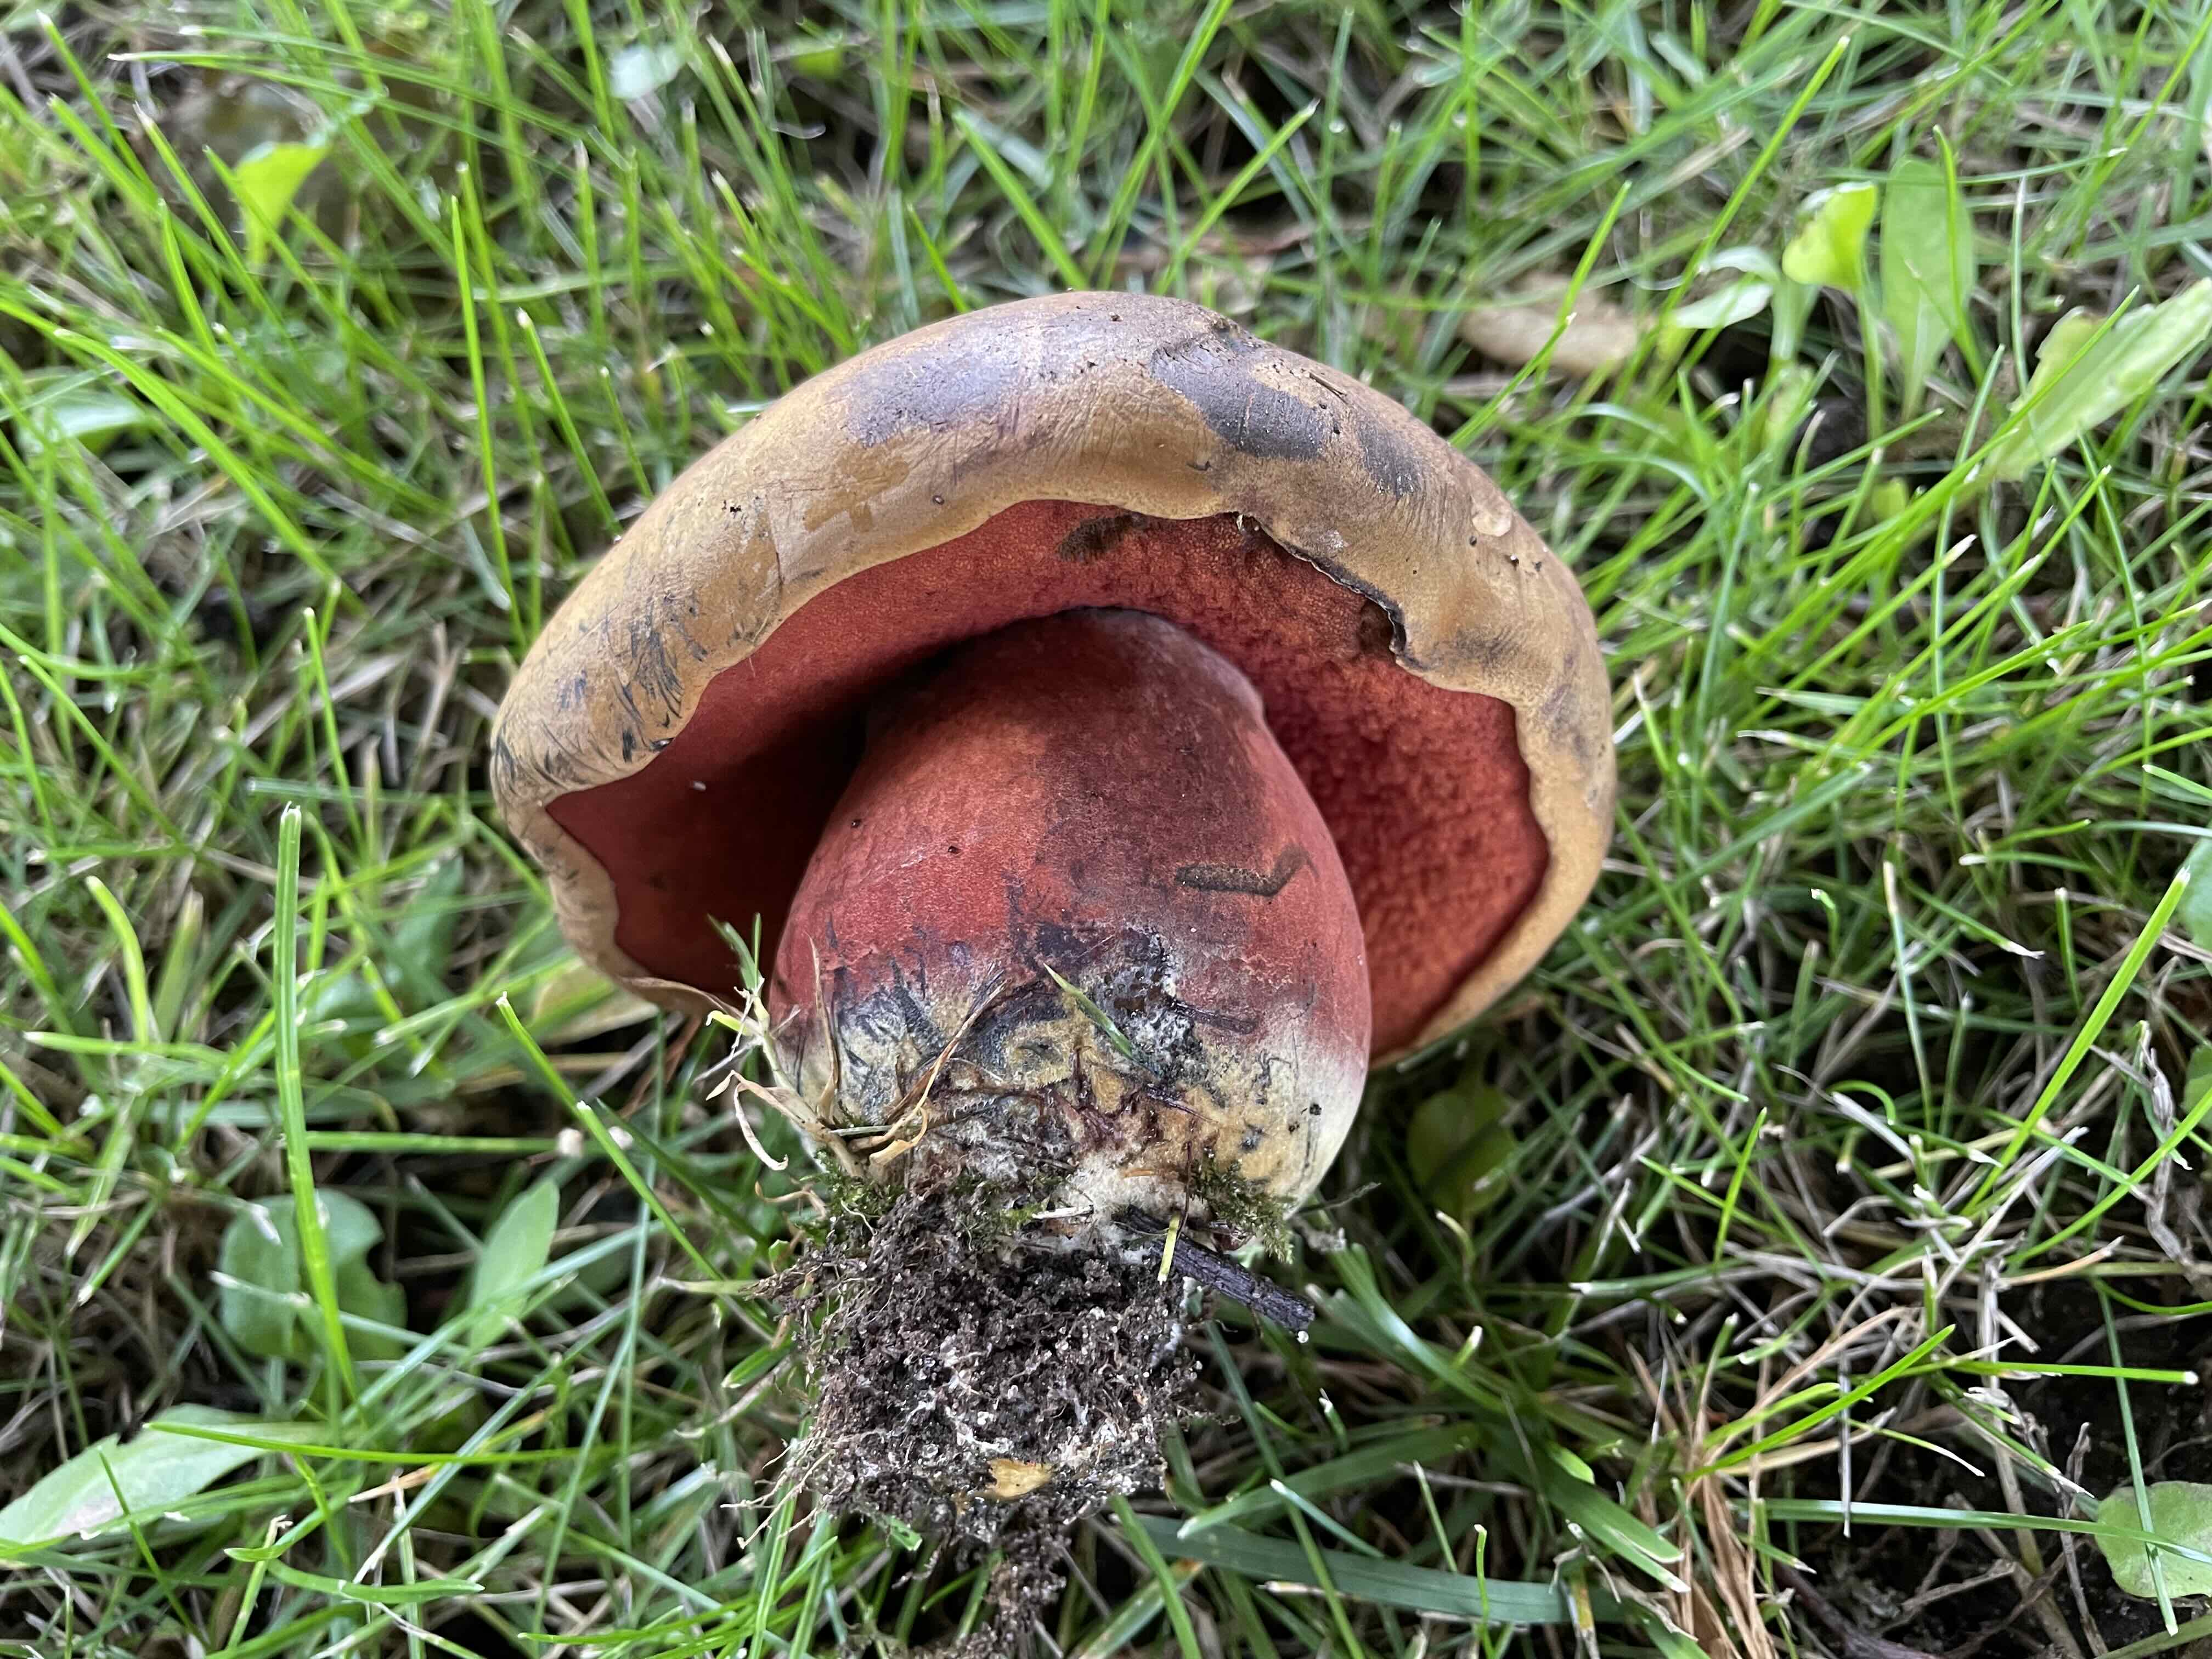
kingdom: Fungi
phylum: Basidiomycota
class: Agaricomycetes
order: Boletales
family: Boletaceae
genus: Neoboletus
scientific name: Neoboletus erythropus
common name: punktstokket indigorørhat
